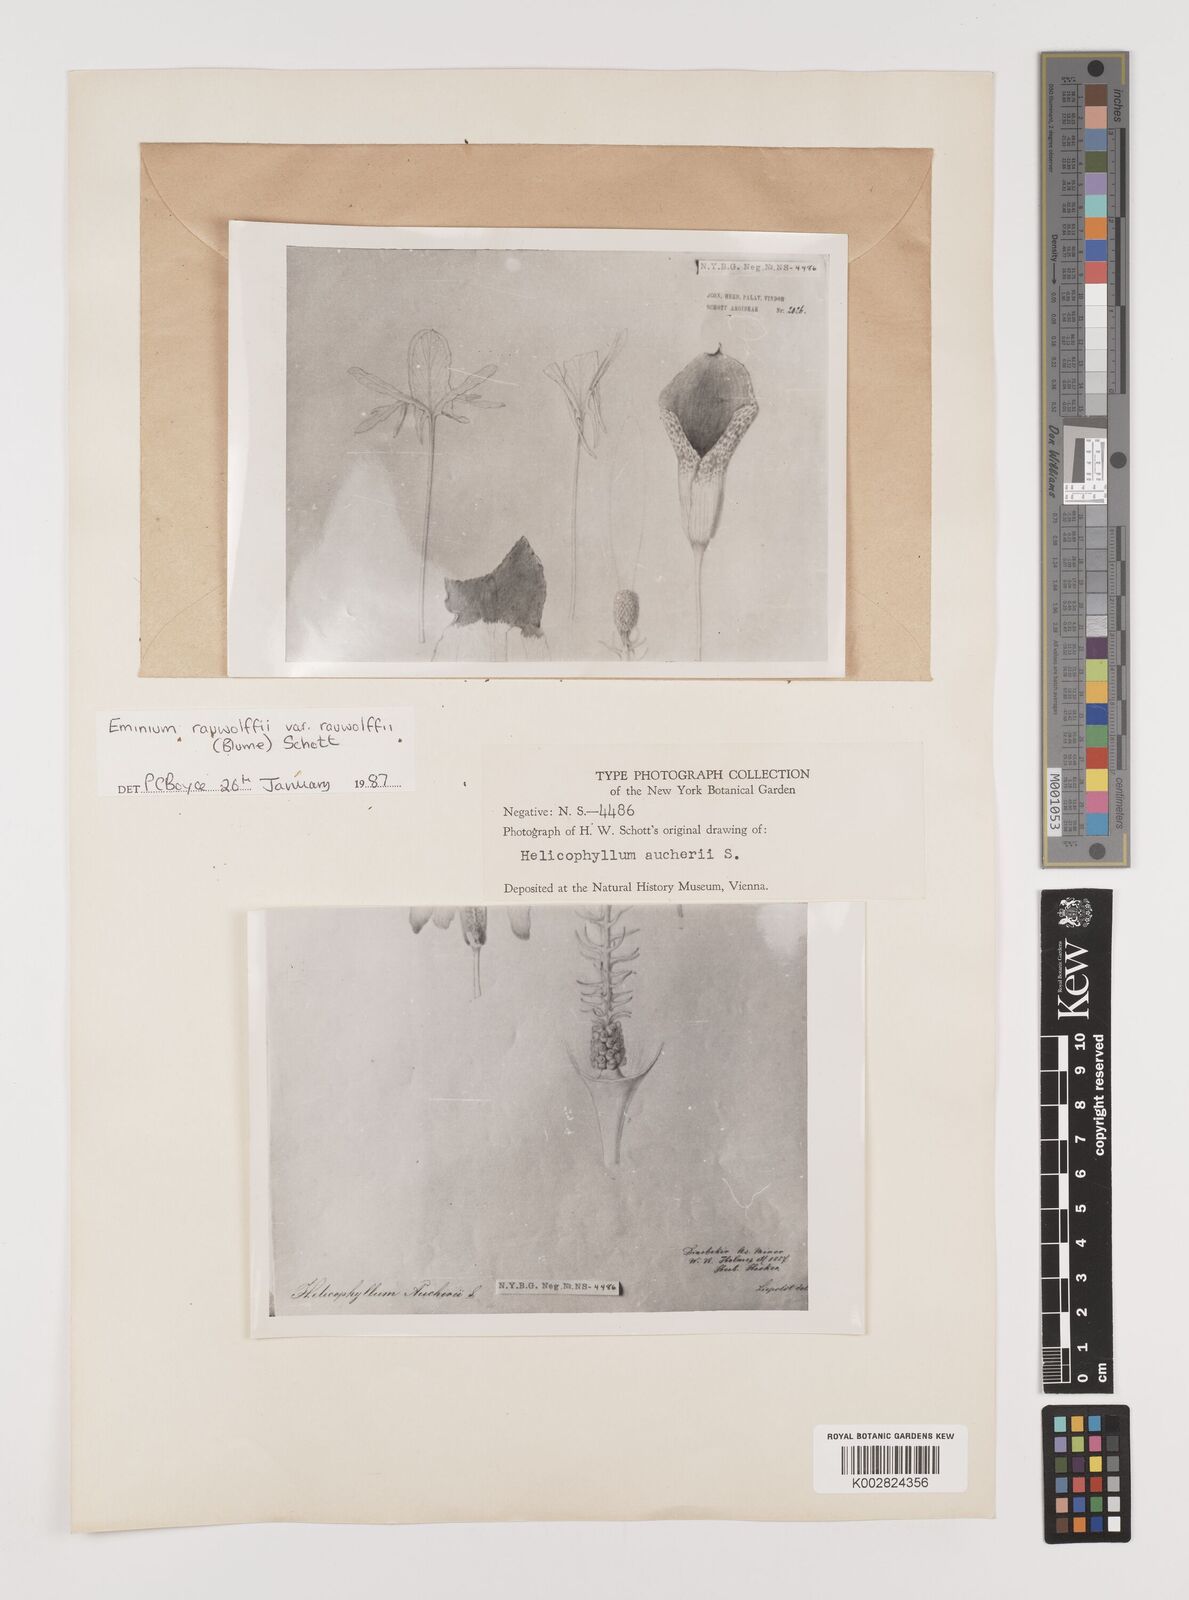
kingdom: Plantae
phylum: Tracheophyta
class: Liliopsida
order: Alismatales
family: Araceae
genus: Eminium
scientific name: Eminium rauwolffii
